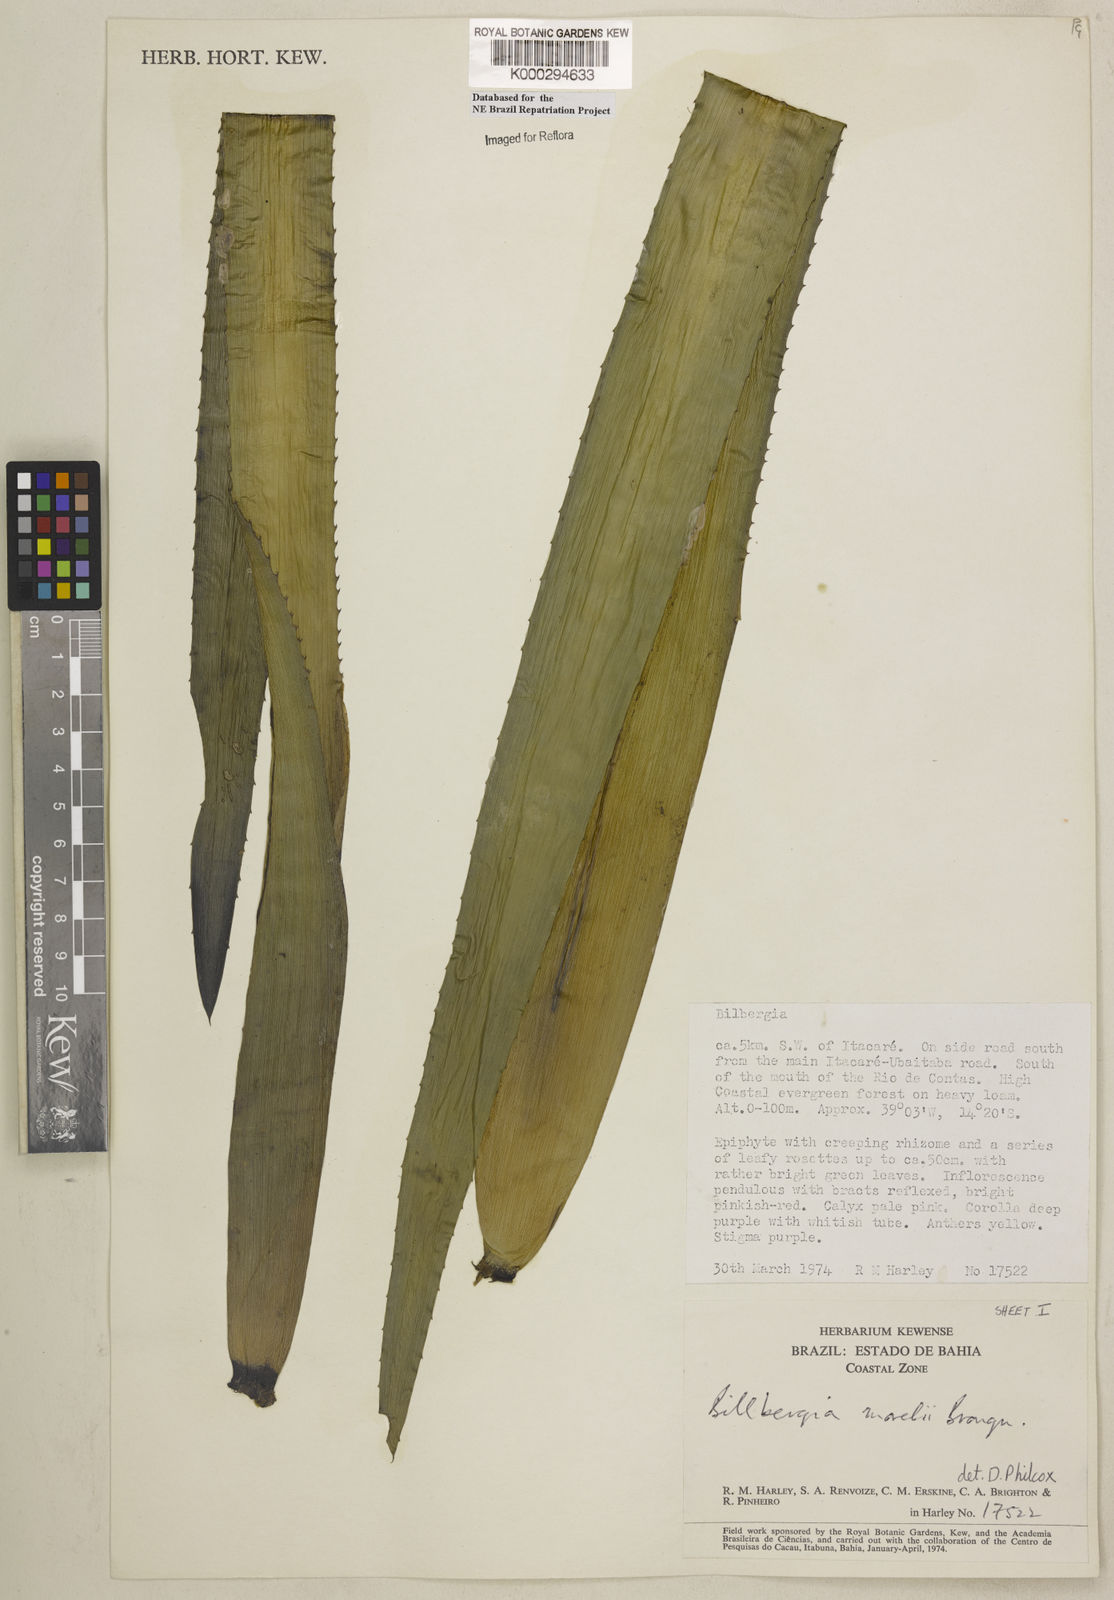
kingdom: Plantae
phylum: Tracheophyta
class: Liliopsida
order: Poales
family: Bromeliaceae
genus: Billbergia
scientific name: Billbergia morelii
